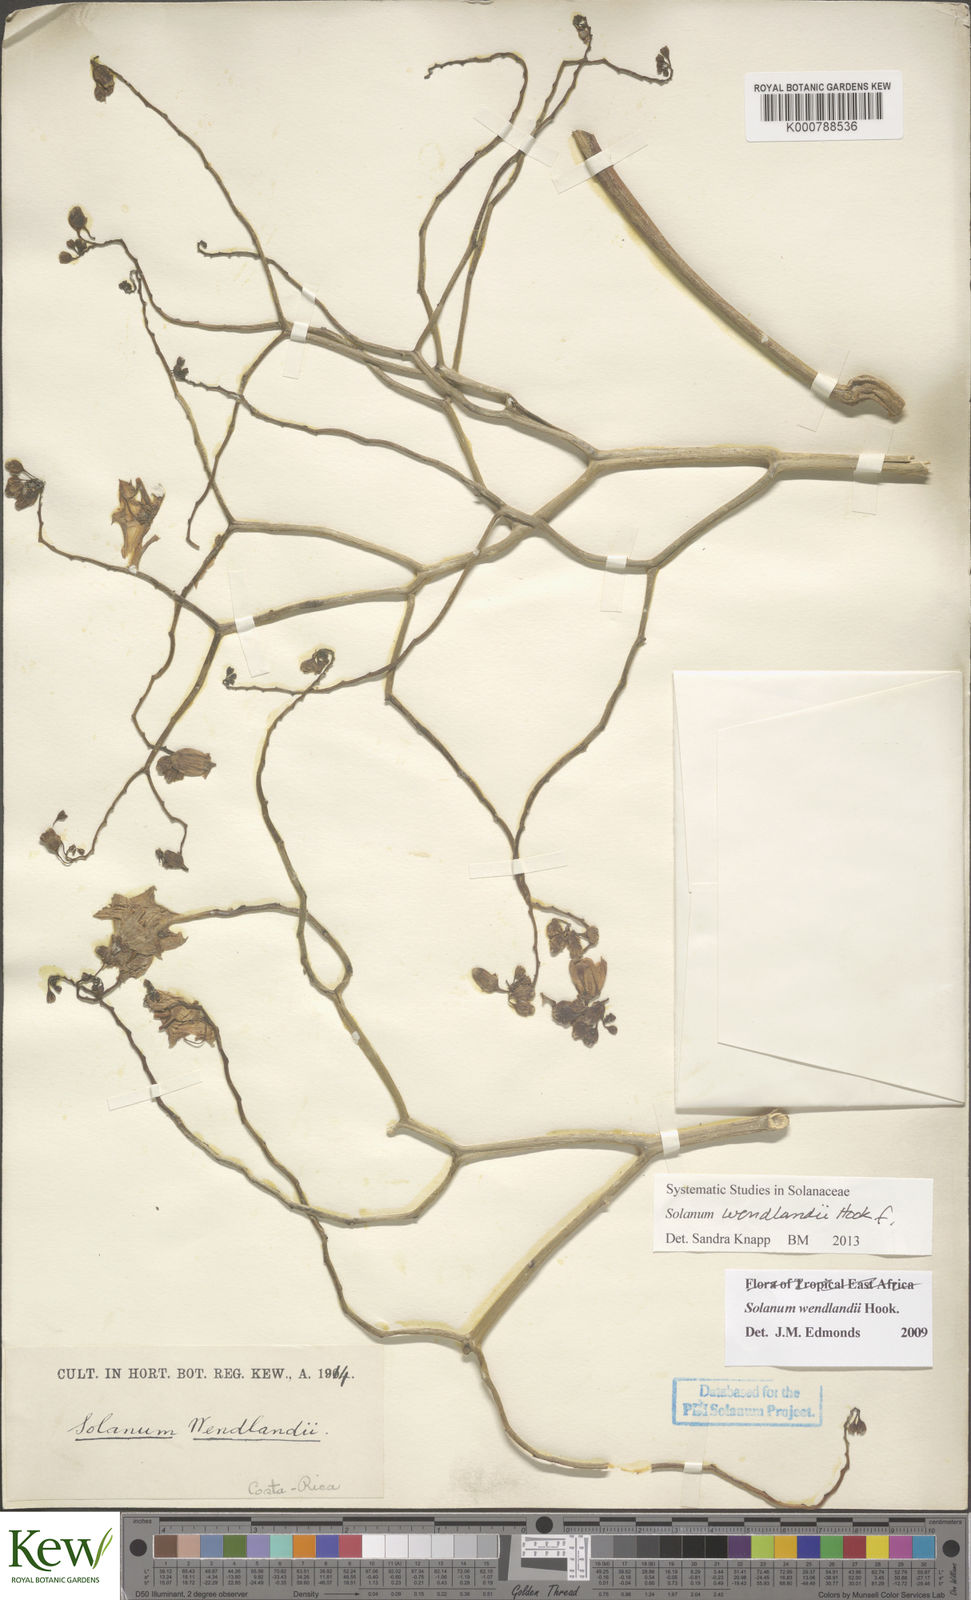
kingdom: Plantae
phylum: Tracheophyta
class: Magnoliopsida
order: Solanales
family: Solanaceae
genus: Solanum
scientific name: Solanum wendlandii
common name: Costa rican nightshade
